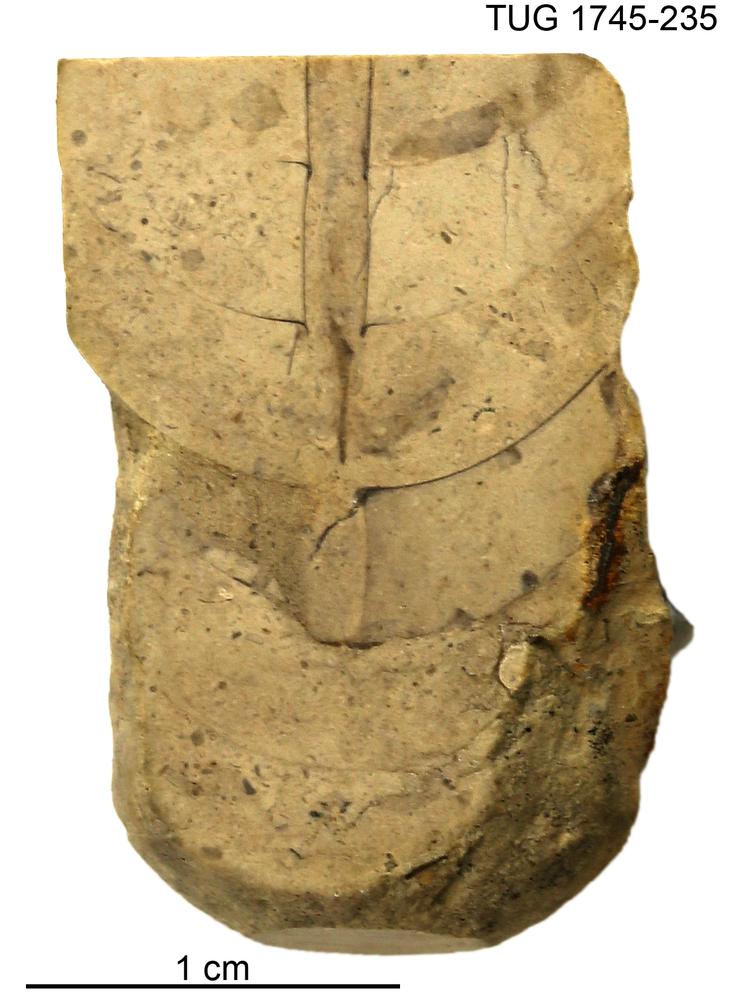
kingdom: Animalia
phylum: Mollusca
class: Cephalopoda
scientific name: Cephalopoda
